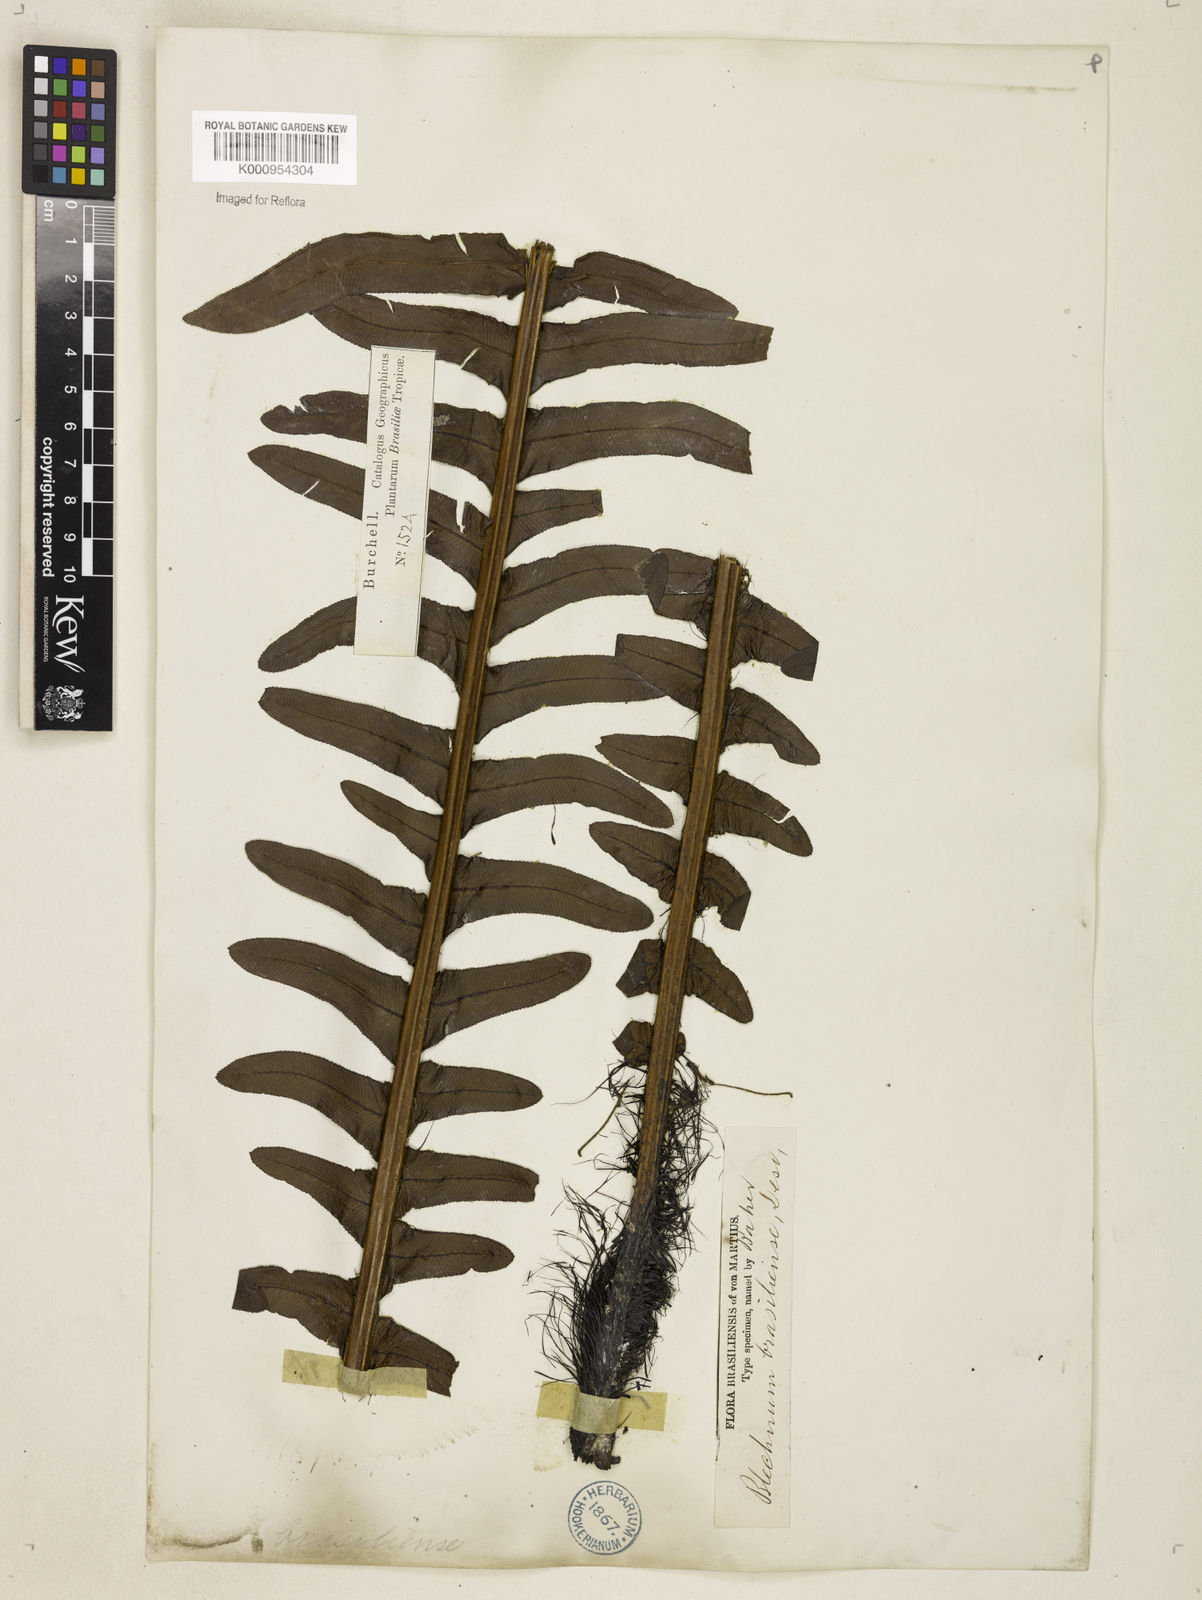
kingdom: Plantae
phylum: Tracheophyta
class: Polypodiopsida
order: Polypodiales
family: Blechnaceae
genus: Neoblechnum
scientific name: Neoblechnum brasiliense
